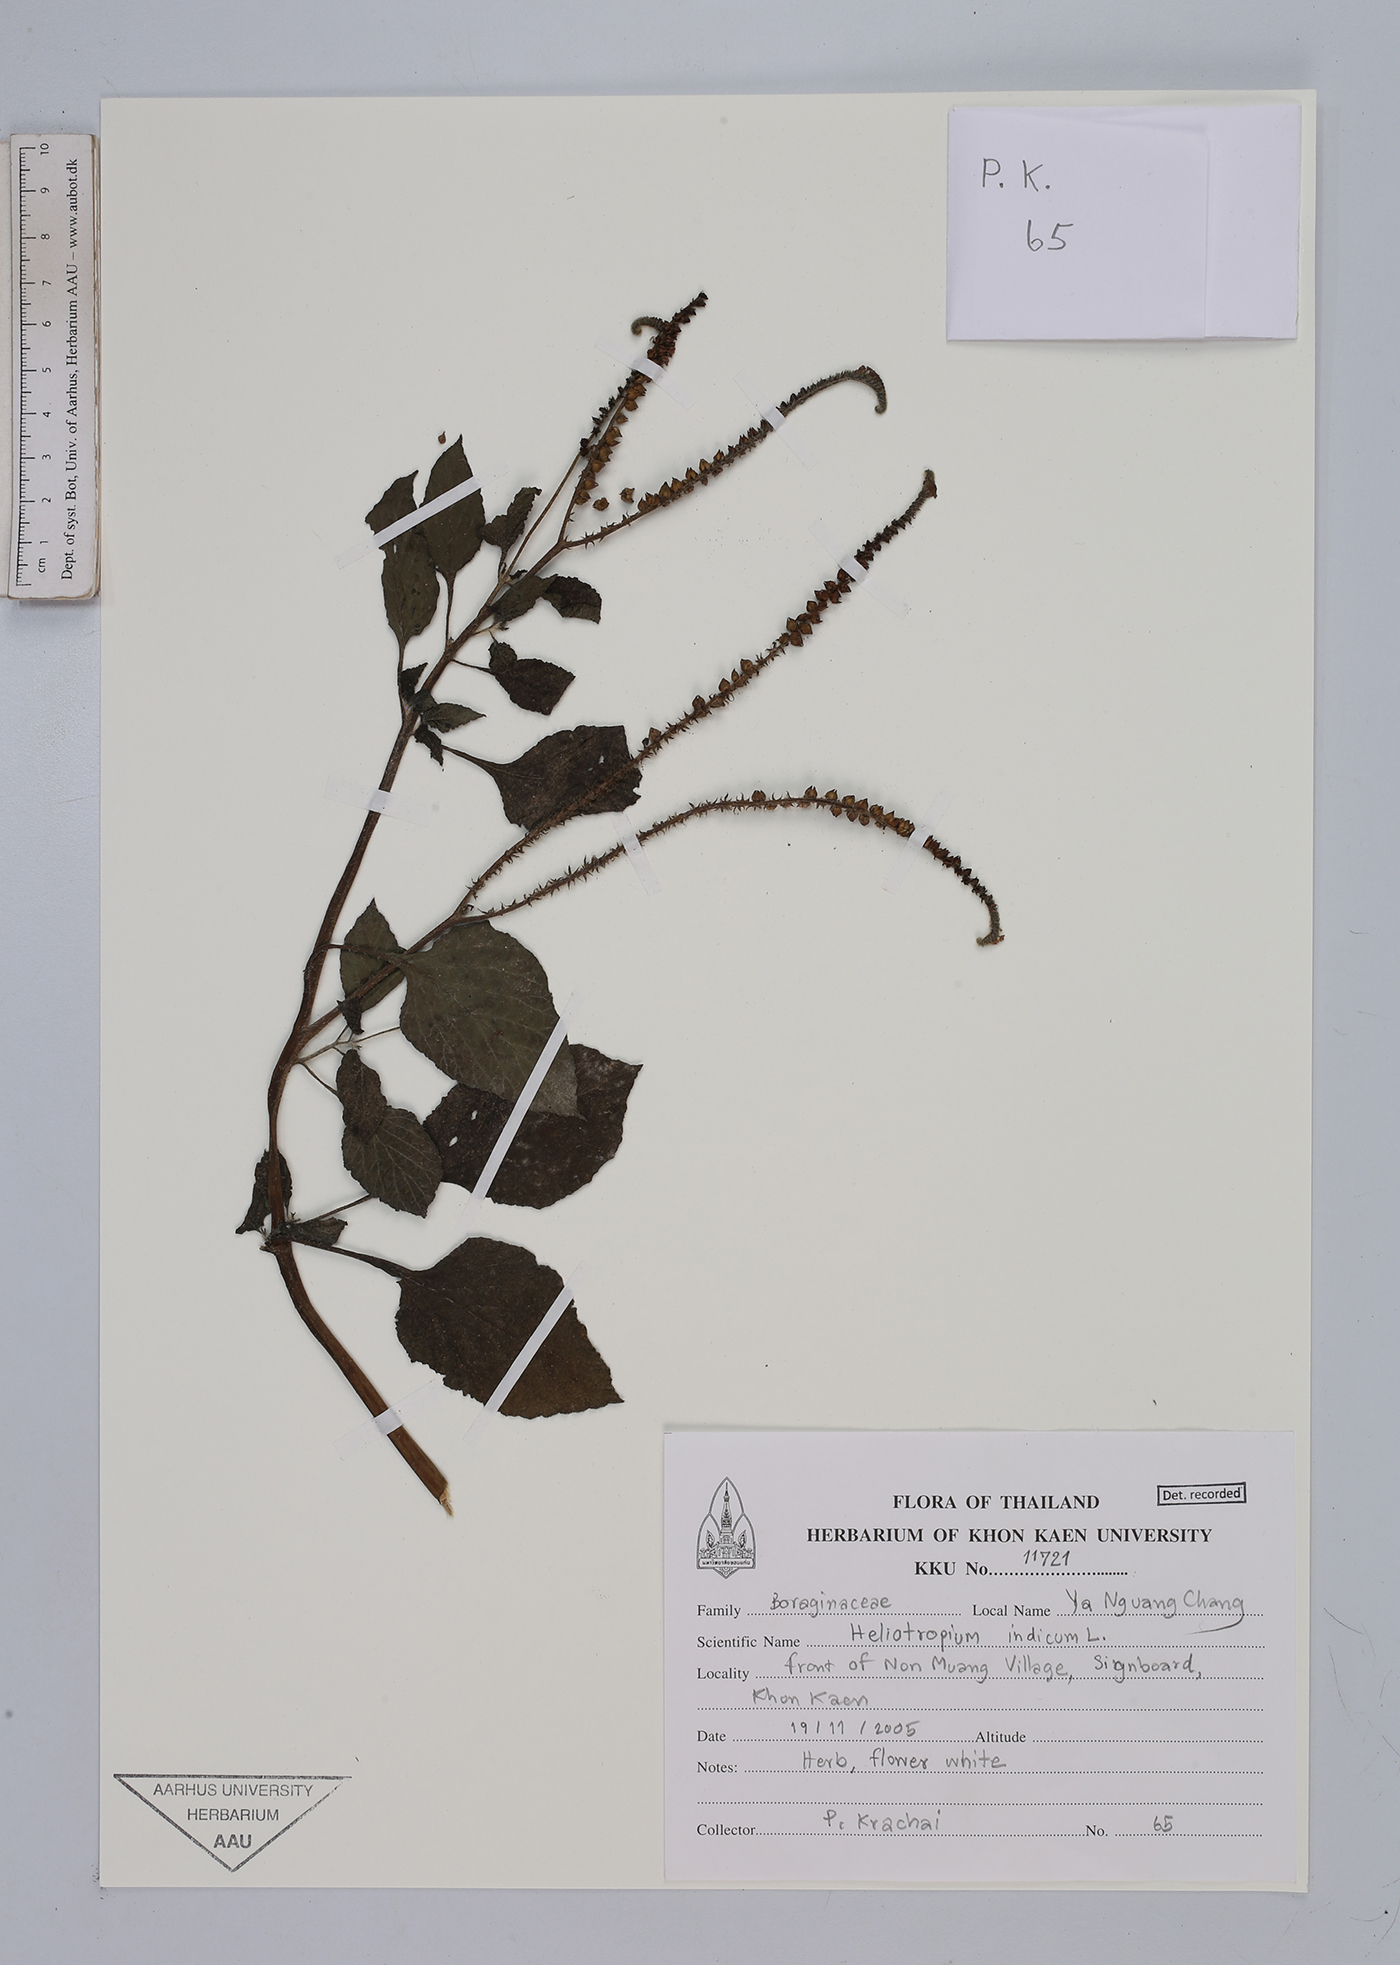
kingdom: Plantae
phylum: Tracheophyta
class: Magnoliopsida
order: Boraginales
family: Heliotropiaceae
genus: Heliotropium
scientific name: Heliotropium indicum
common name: Indian heliotrope
